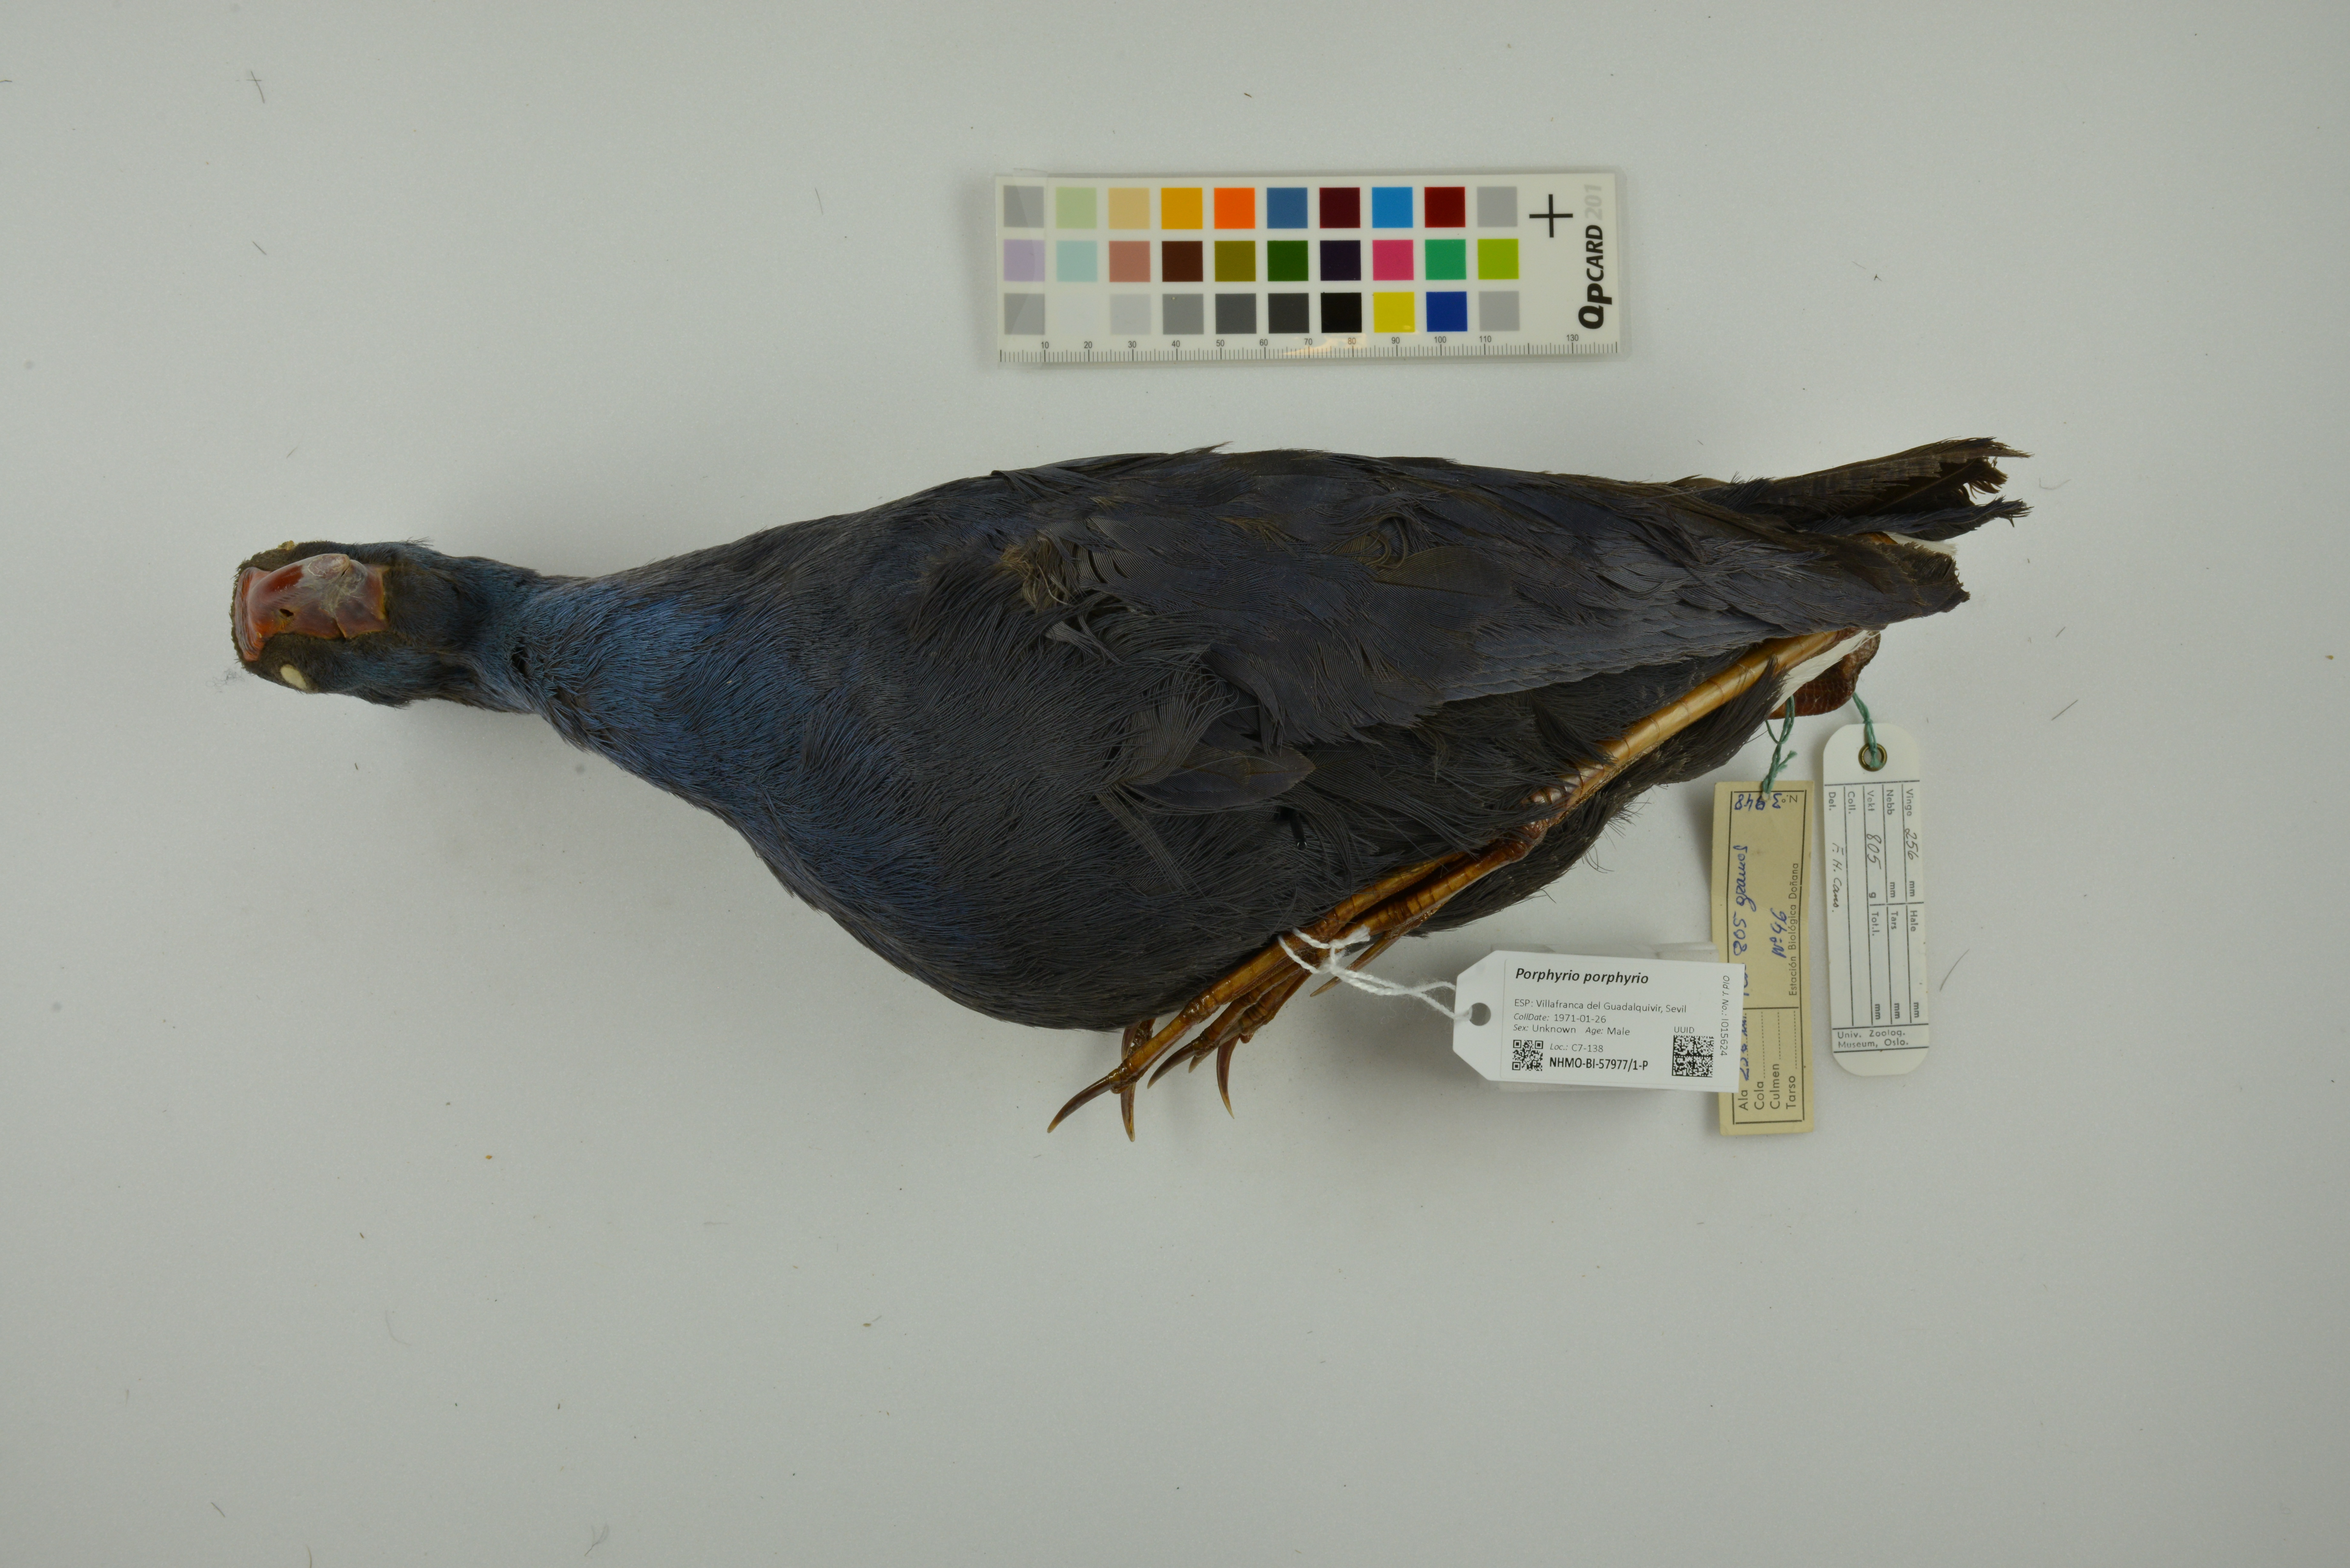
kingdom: Animalia
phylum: Chordata
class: Aves
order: Gruiformes
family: Rallidae
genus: Porphyrio
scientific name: Porphyrio porphyrio
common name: Purple swamphen
